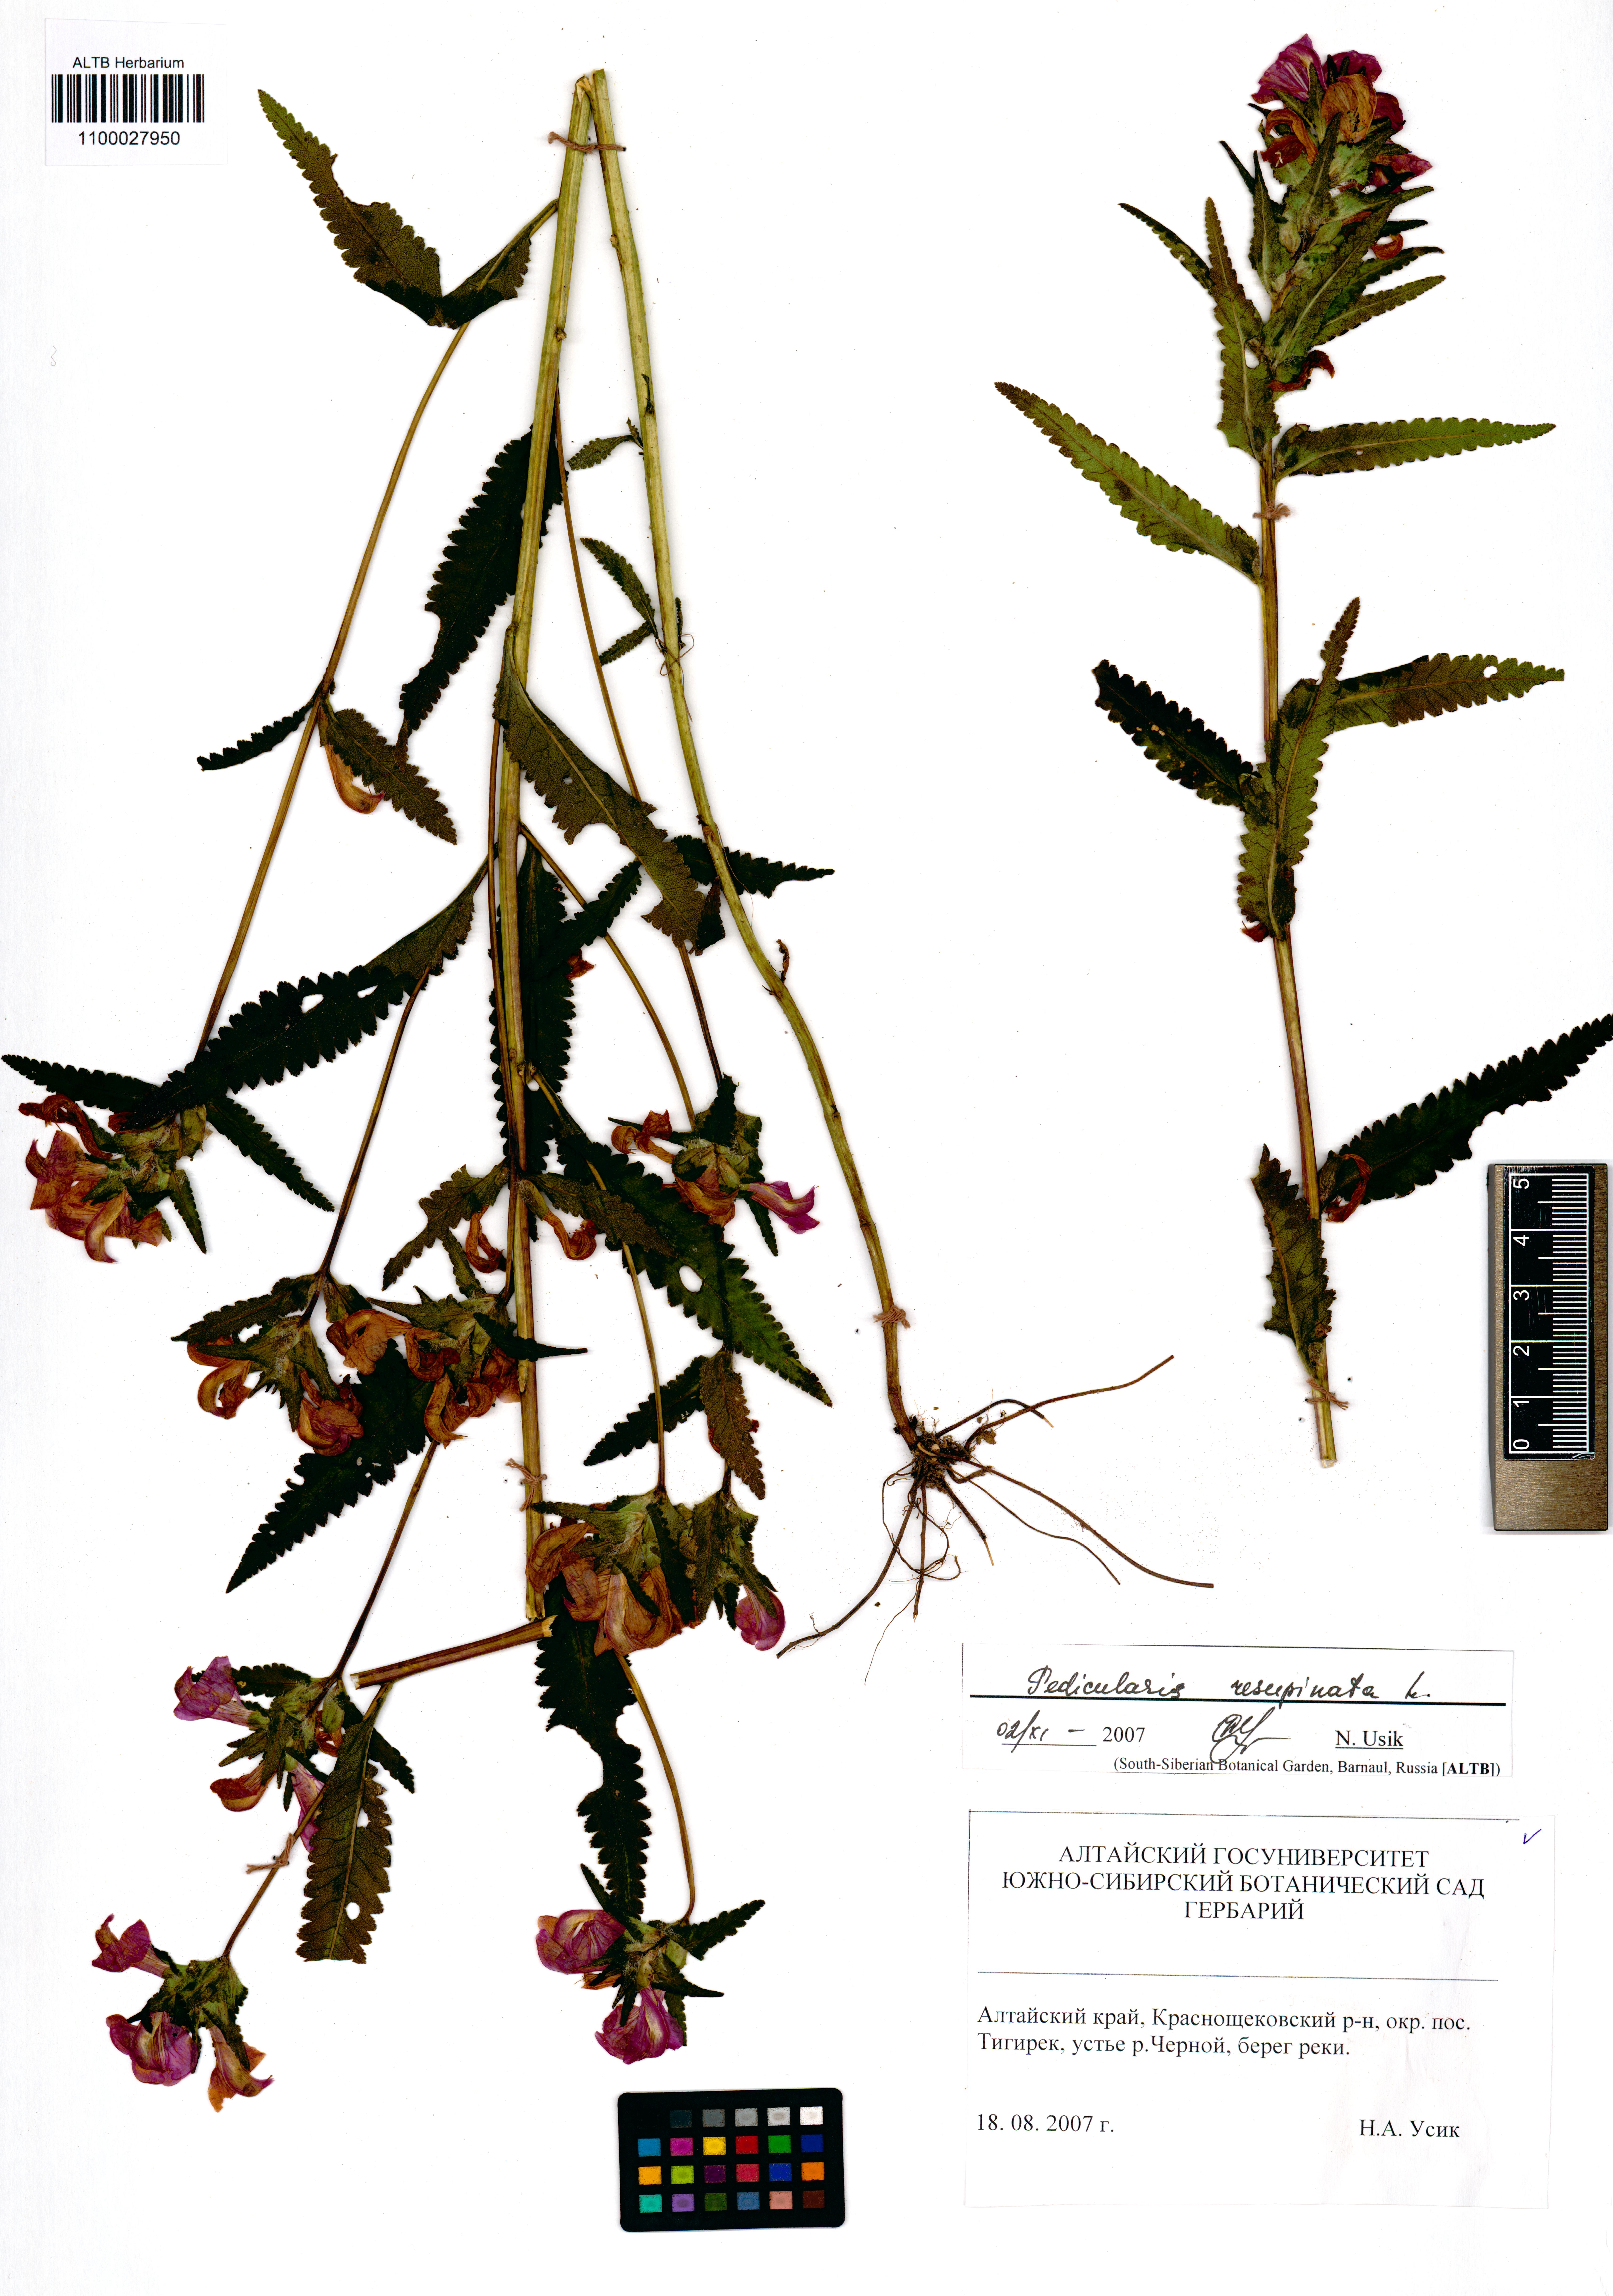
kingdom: Plantae
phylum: Tracheophyta
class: Magnoliopsida
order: Lamiales
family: Orobanchaceae
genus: Pedicularis
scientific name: Pedicularis resupinata
